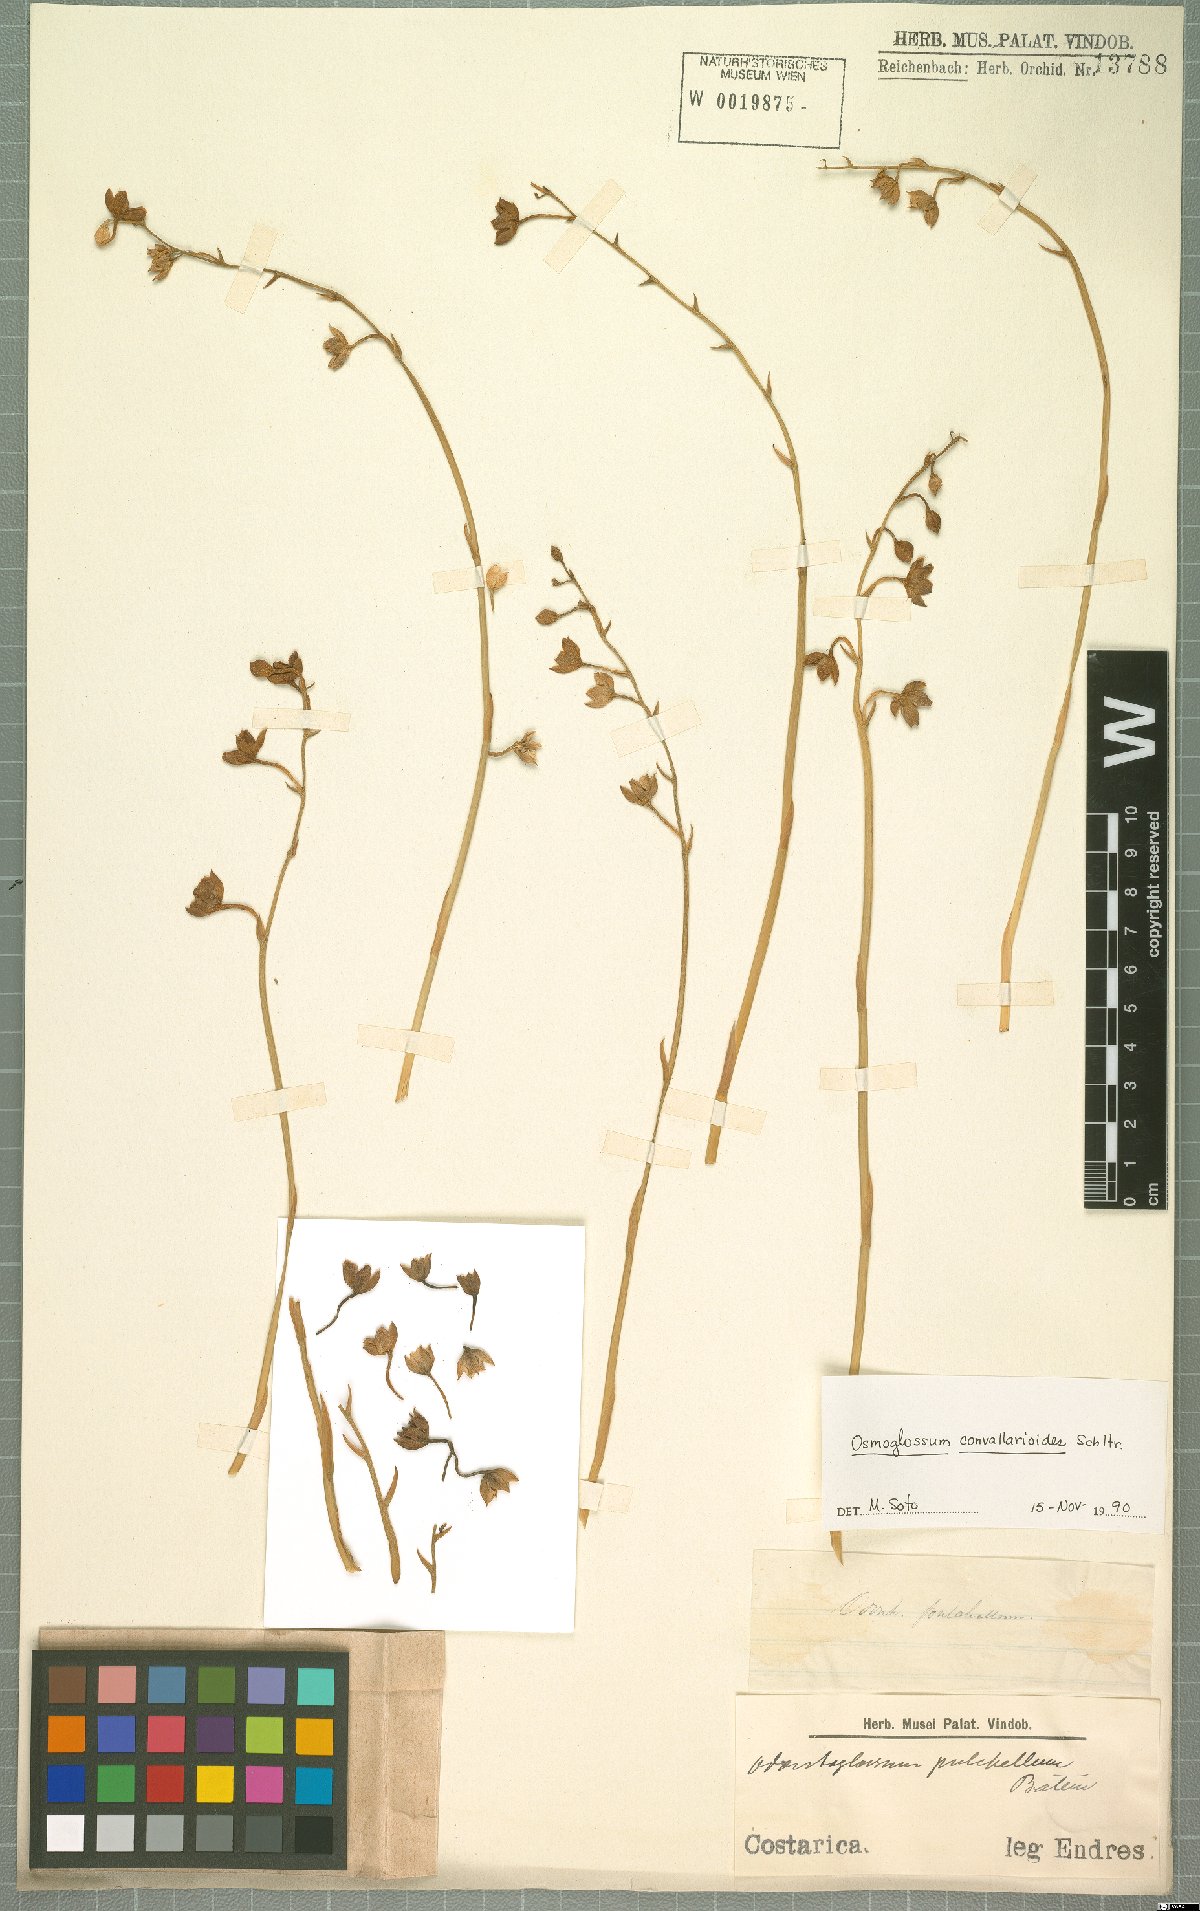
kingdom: Plantae
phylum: Tracheophyta
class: Liliopsida
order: Asparagales
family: Orchidaceae
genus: Cuitlauzina
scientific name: Cuitlauzina convallarioides
